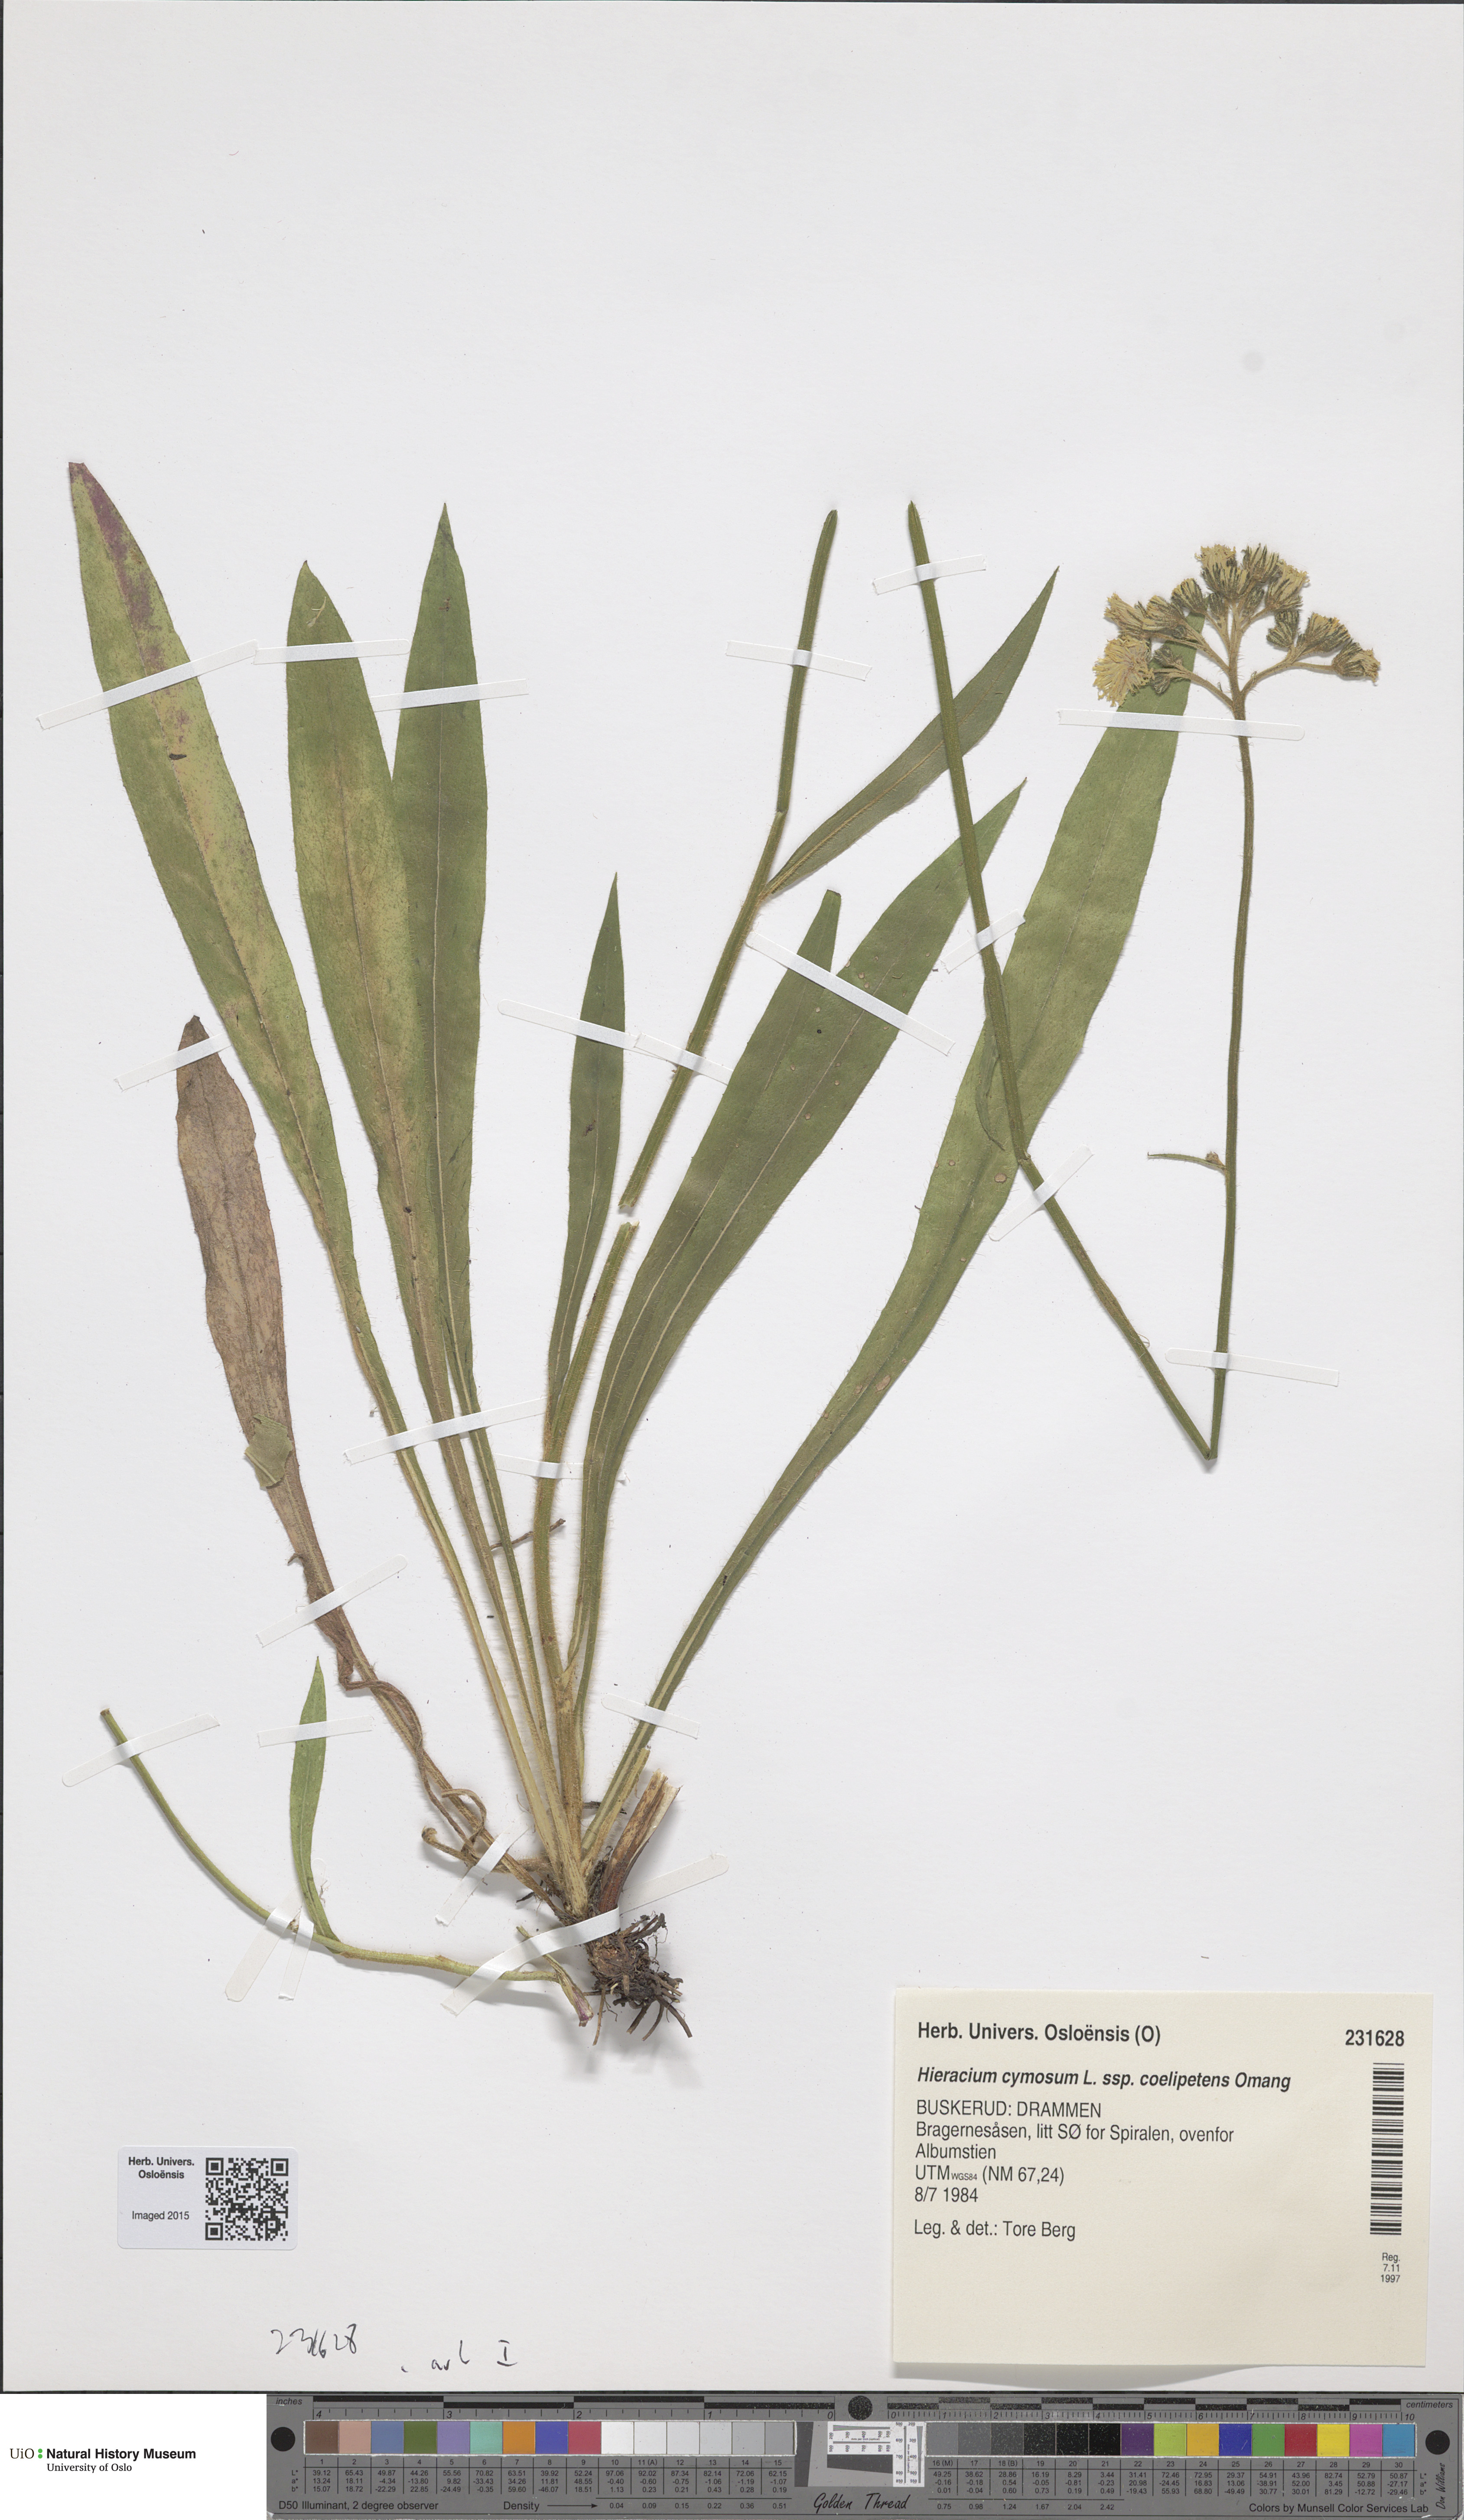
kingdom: Plantae
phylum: Tracheophyta
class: Magnoliopsida
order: Asterales
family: Asteraceae
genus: Pilosella
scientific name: Pilosella cymosa
